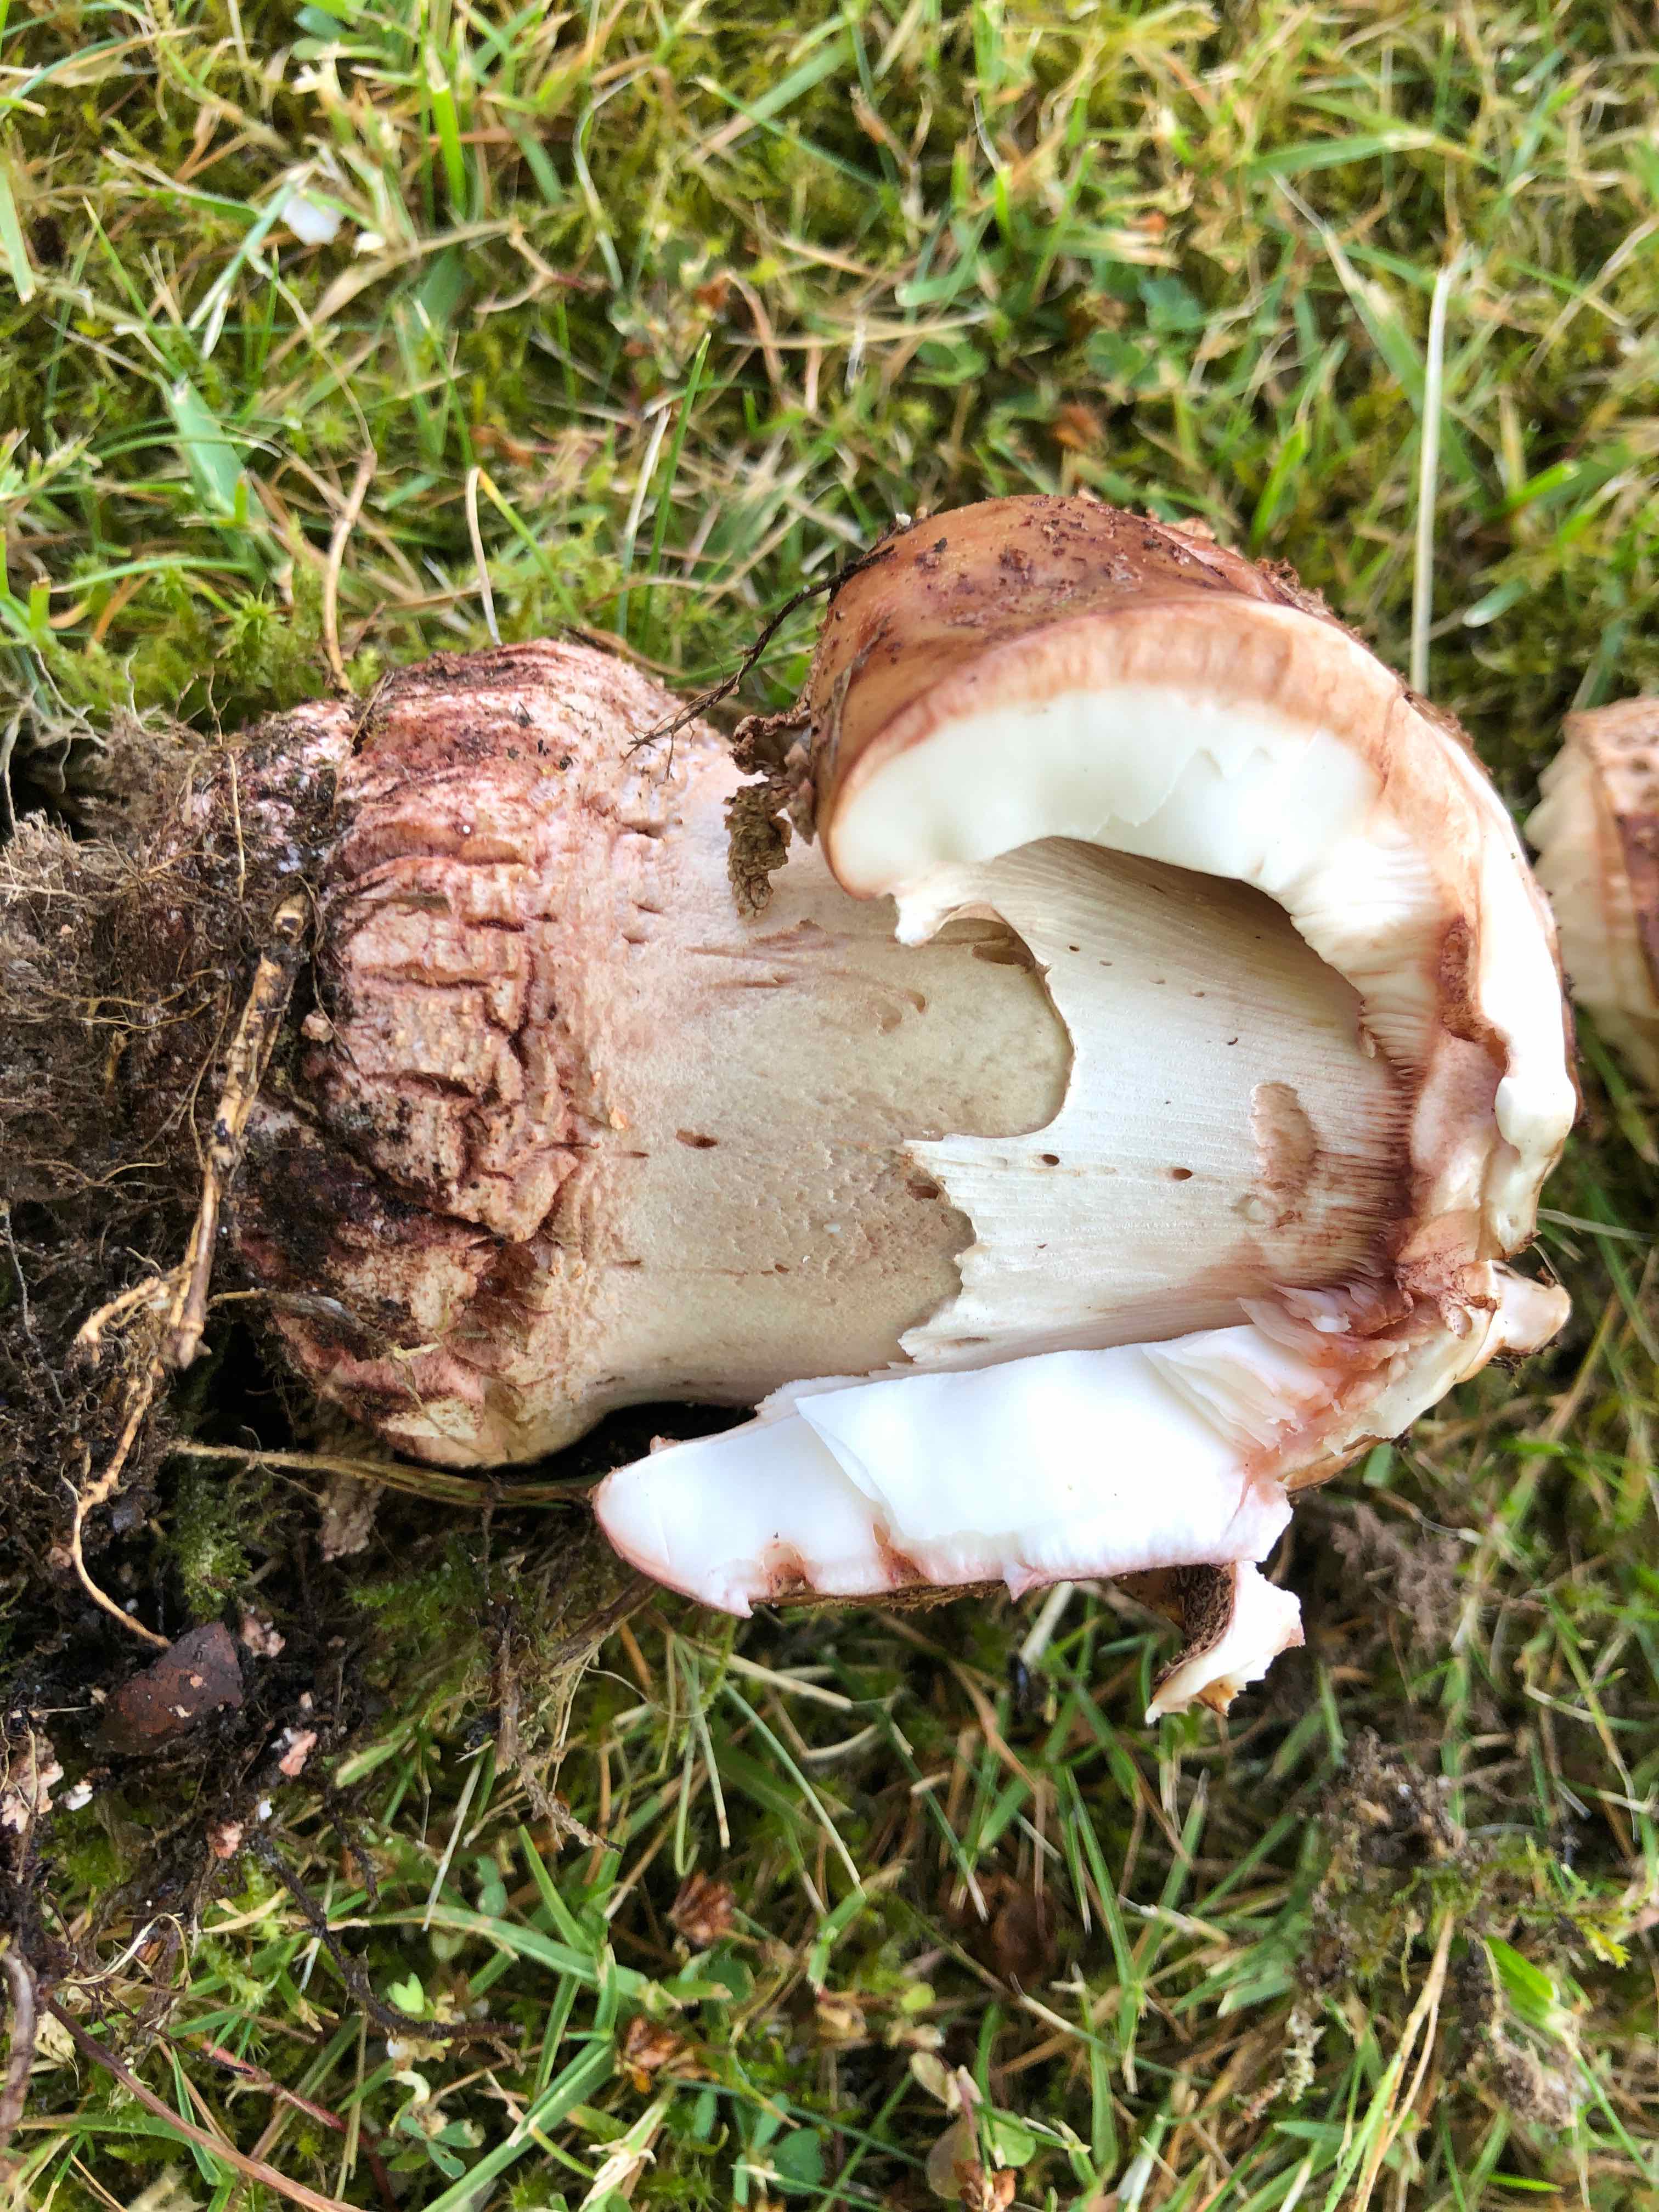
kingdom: Fungi
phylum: Basidiomycota
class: Agaricomycetes
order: Agaricales
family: Amanitaceae
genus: Amanita
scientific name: Amanita rubescens
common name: rødmende fluesvamp
